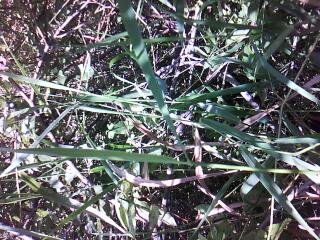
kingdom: Plantae
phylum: Tracheophyta
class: Magnoliopsida
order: Asterales
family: Campanulaceae
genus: Palustricodon
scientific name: Palustricodon aparinoides
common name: Bedstraw bellflower
